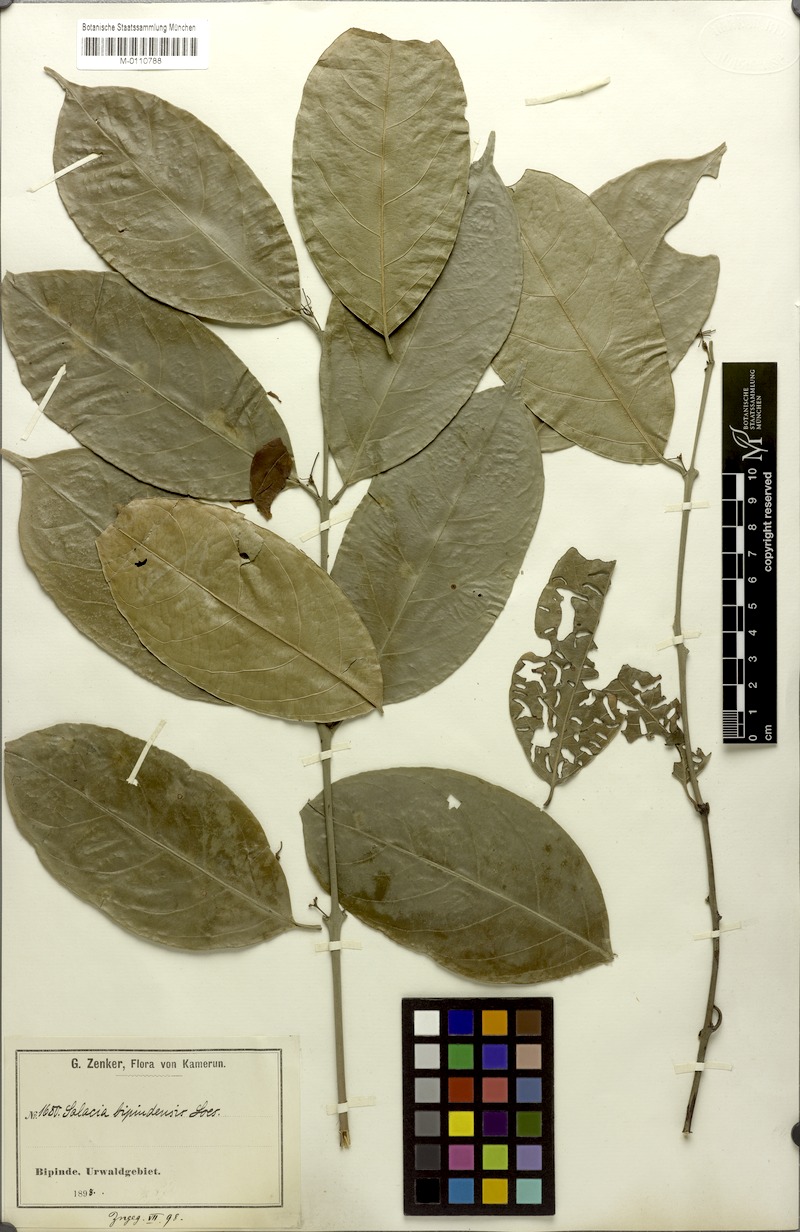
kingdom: Plantae
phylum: Tracheophyta
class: Magnoliopsida
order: Celastrales
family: Celastraceae
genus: Salacia
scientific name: Salacia nitida
